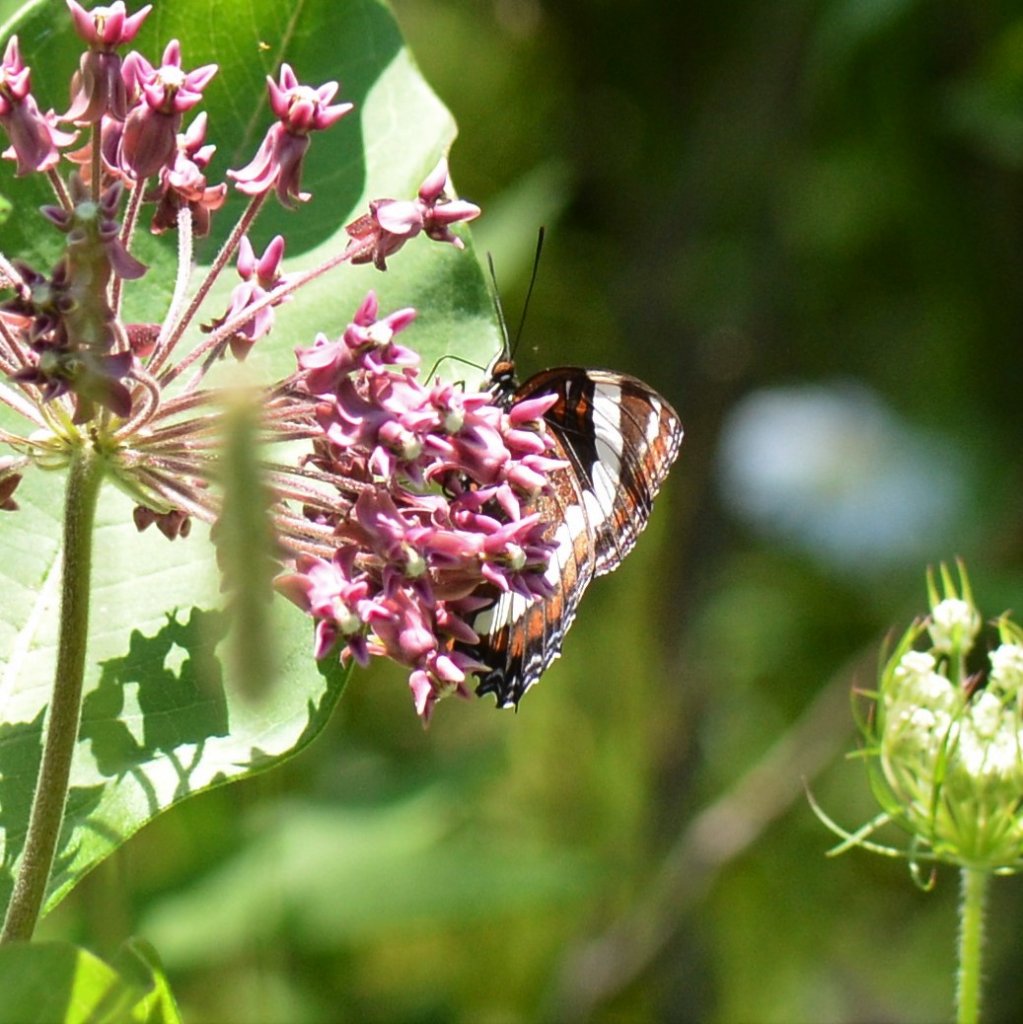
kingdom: Animalia
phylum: Arthropoda
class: Insecta
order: Lepidoptera
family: Nymphalidae
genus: Limenitis
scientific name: Limenitis arthemis
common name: Red-spotted Admiral
